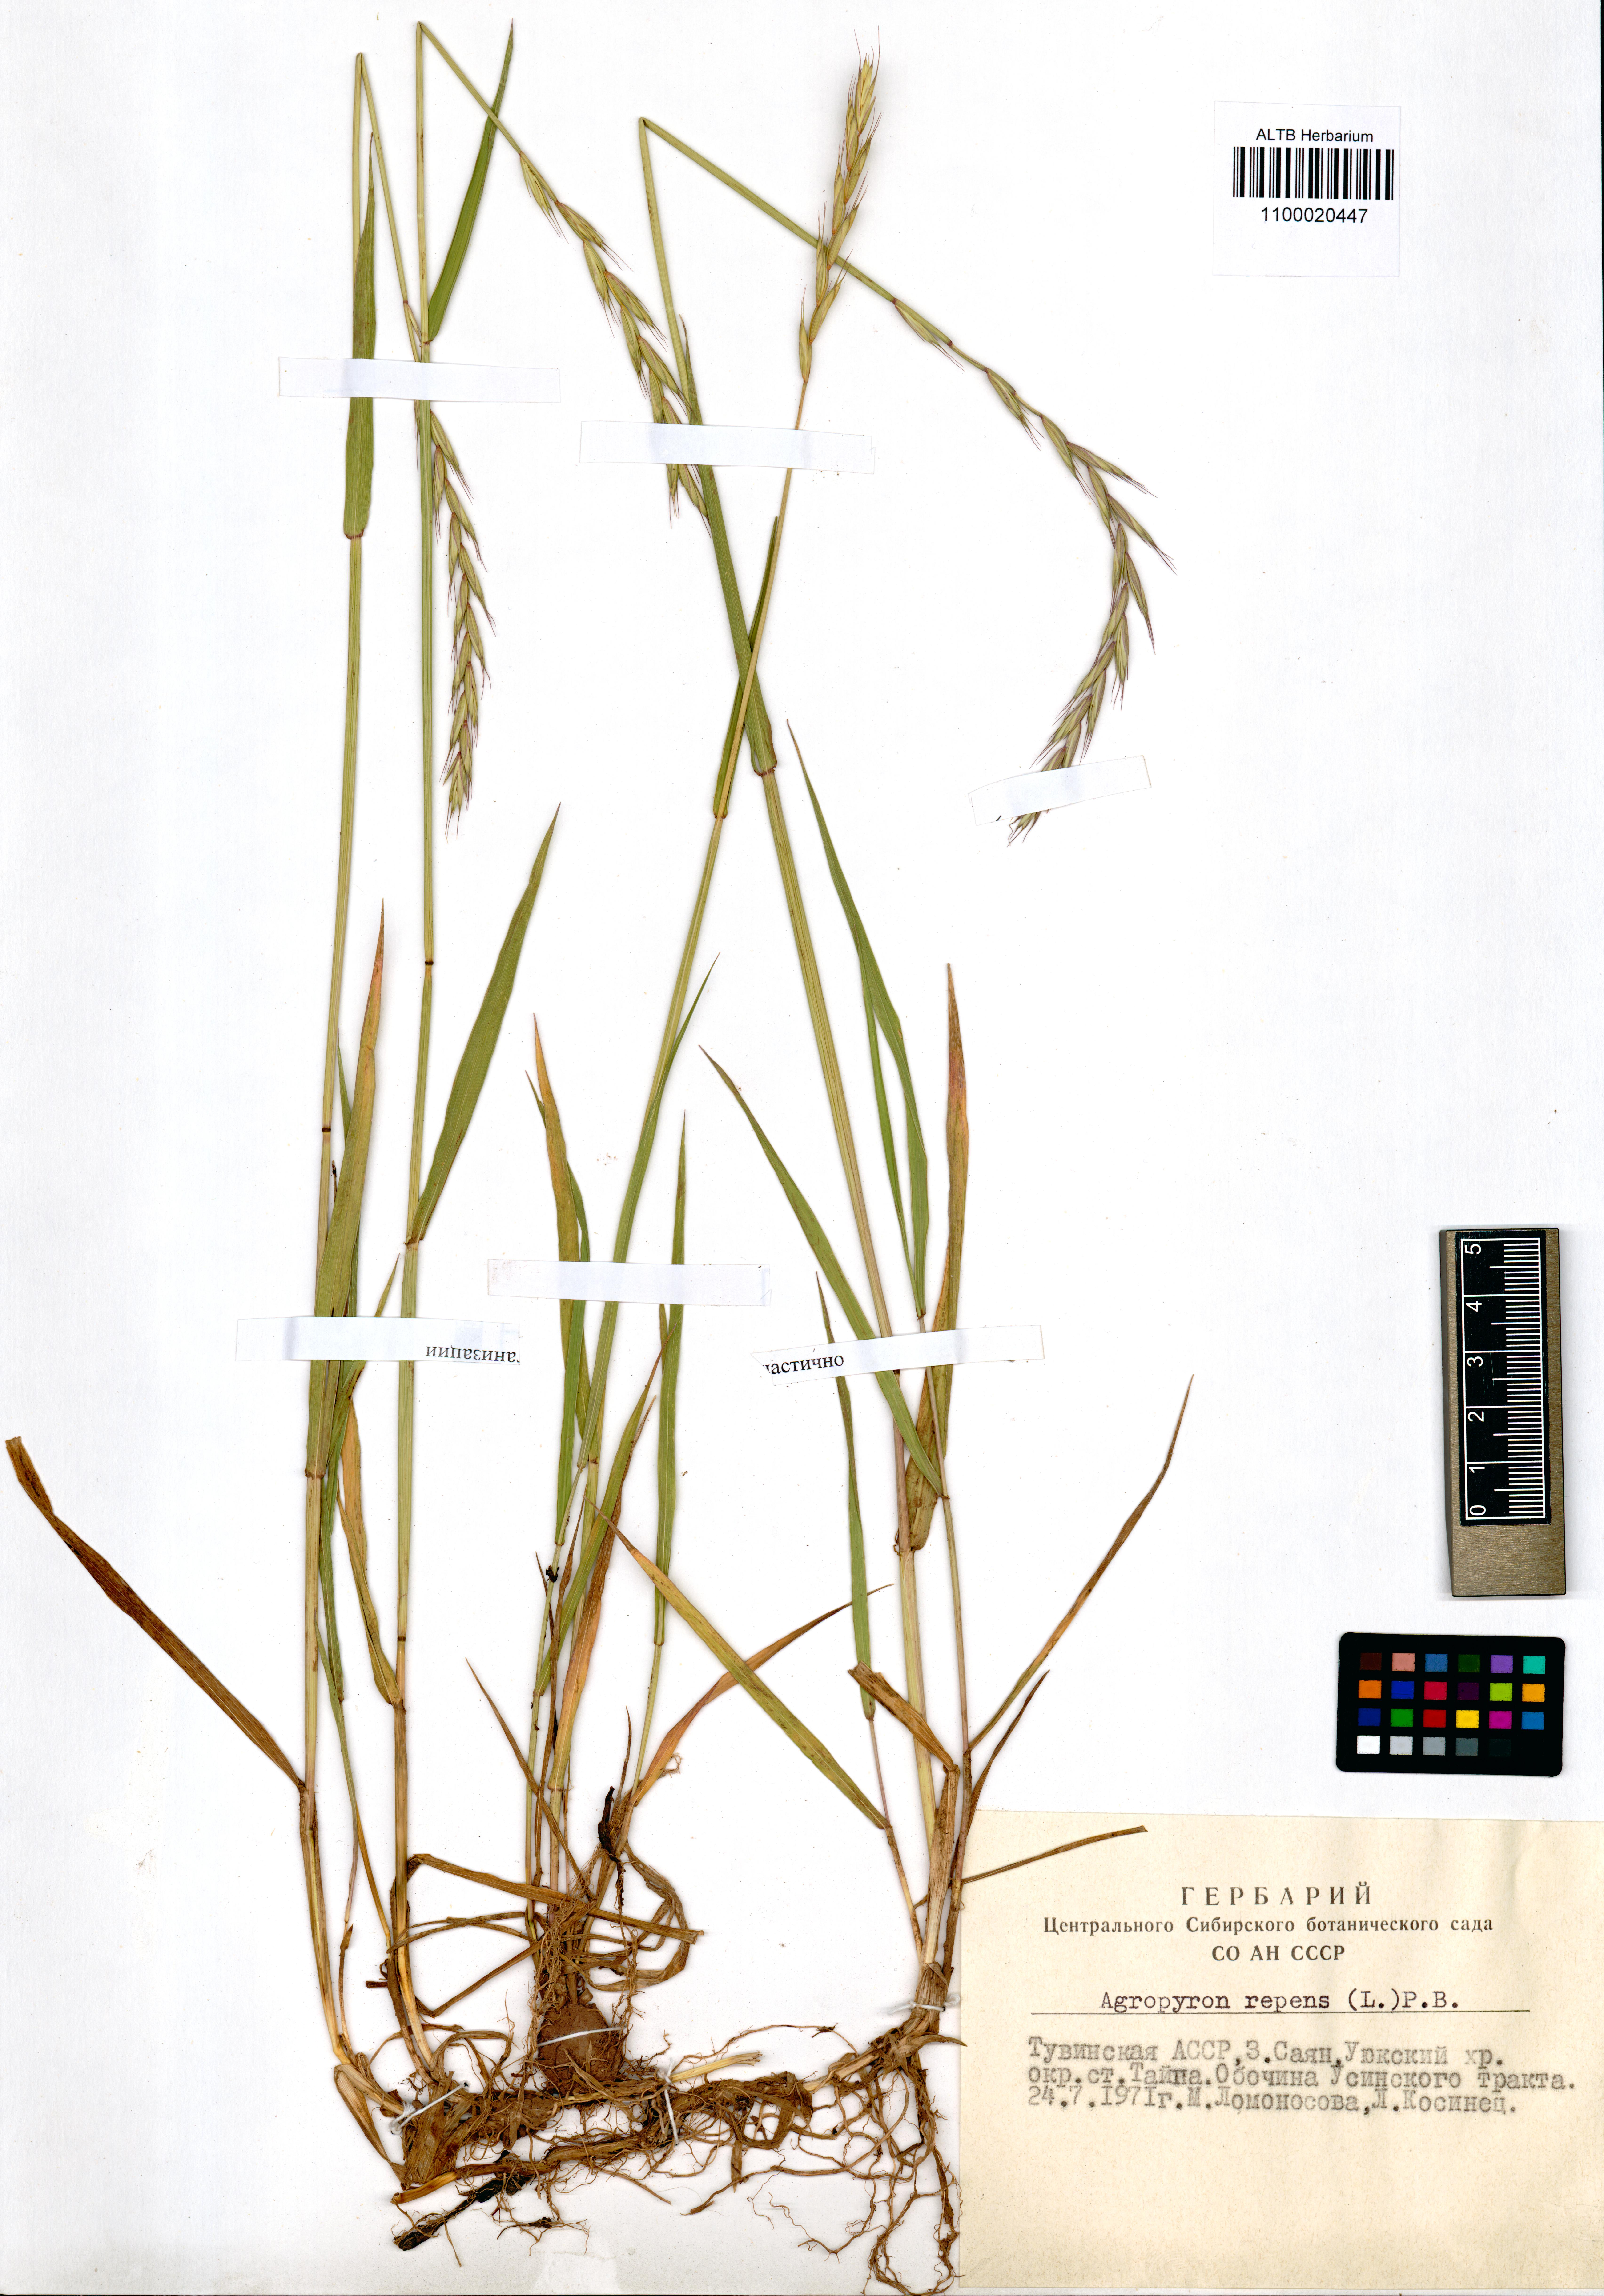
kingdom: Plantae
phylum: Tracheophyta
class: Liliopsida
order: Poales
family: Poaceae
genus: Elymus
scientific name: Elymus repens
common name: Quackgrass
